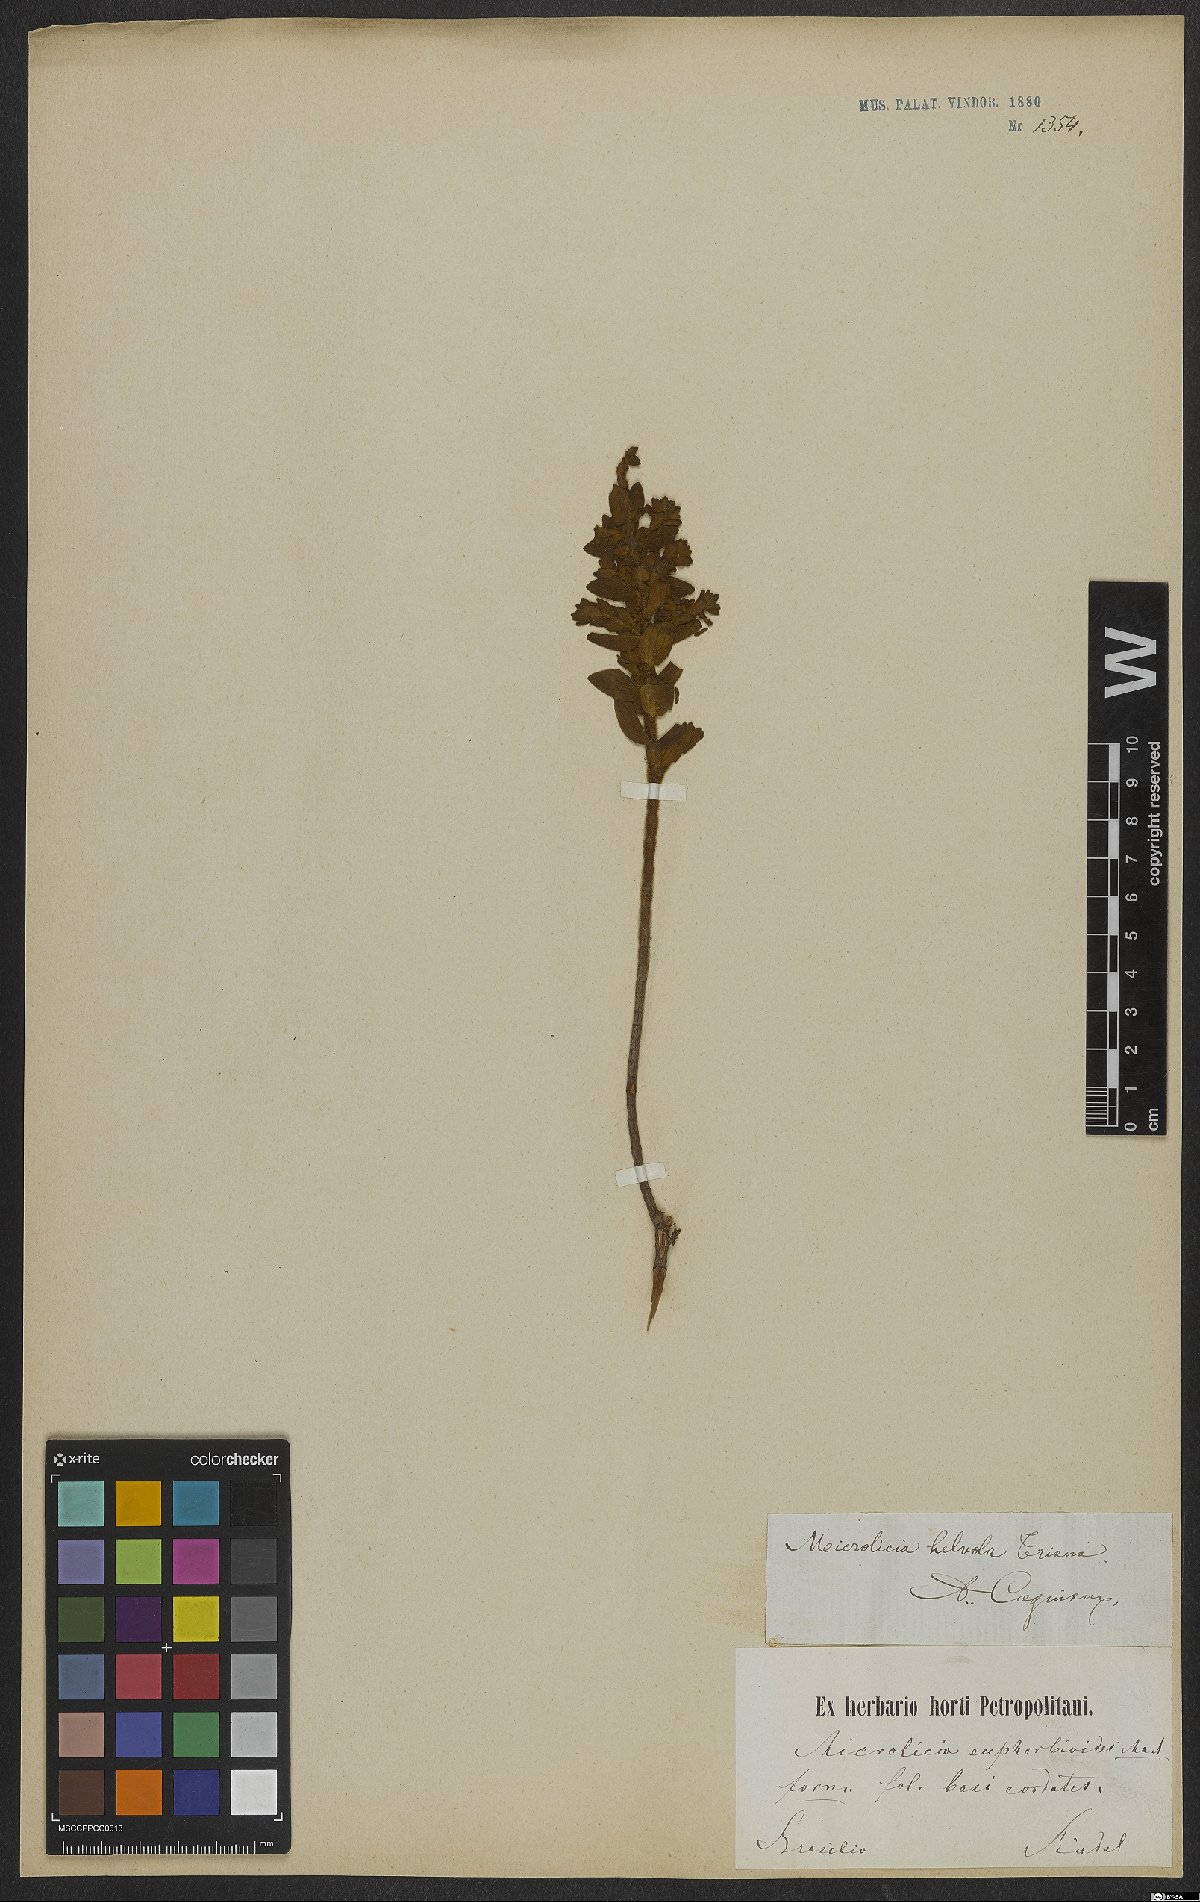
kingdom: Plantae
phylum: Tracheophyta
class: Magnoliopsida
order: Myrtales
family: Melastomataceae
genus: Microlicia
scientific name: Microlicia helvola
